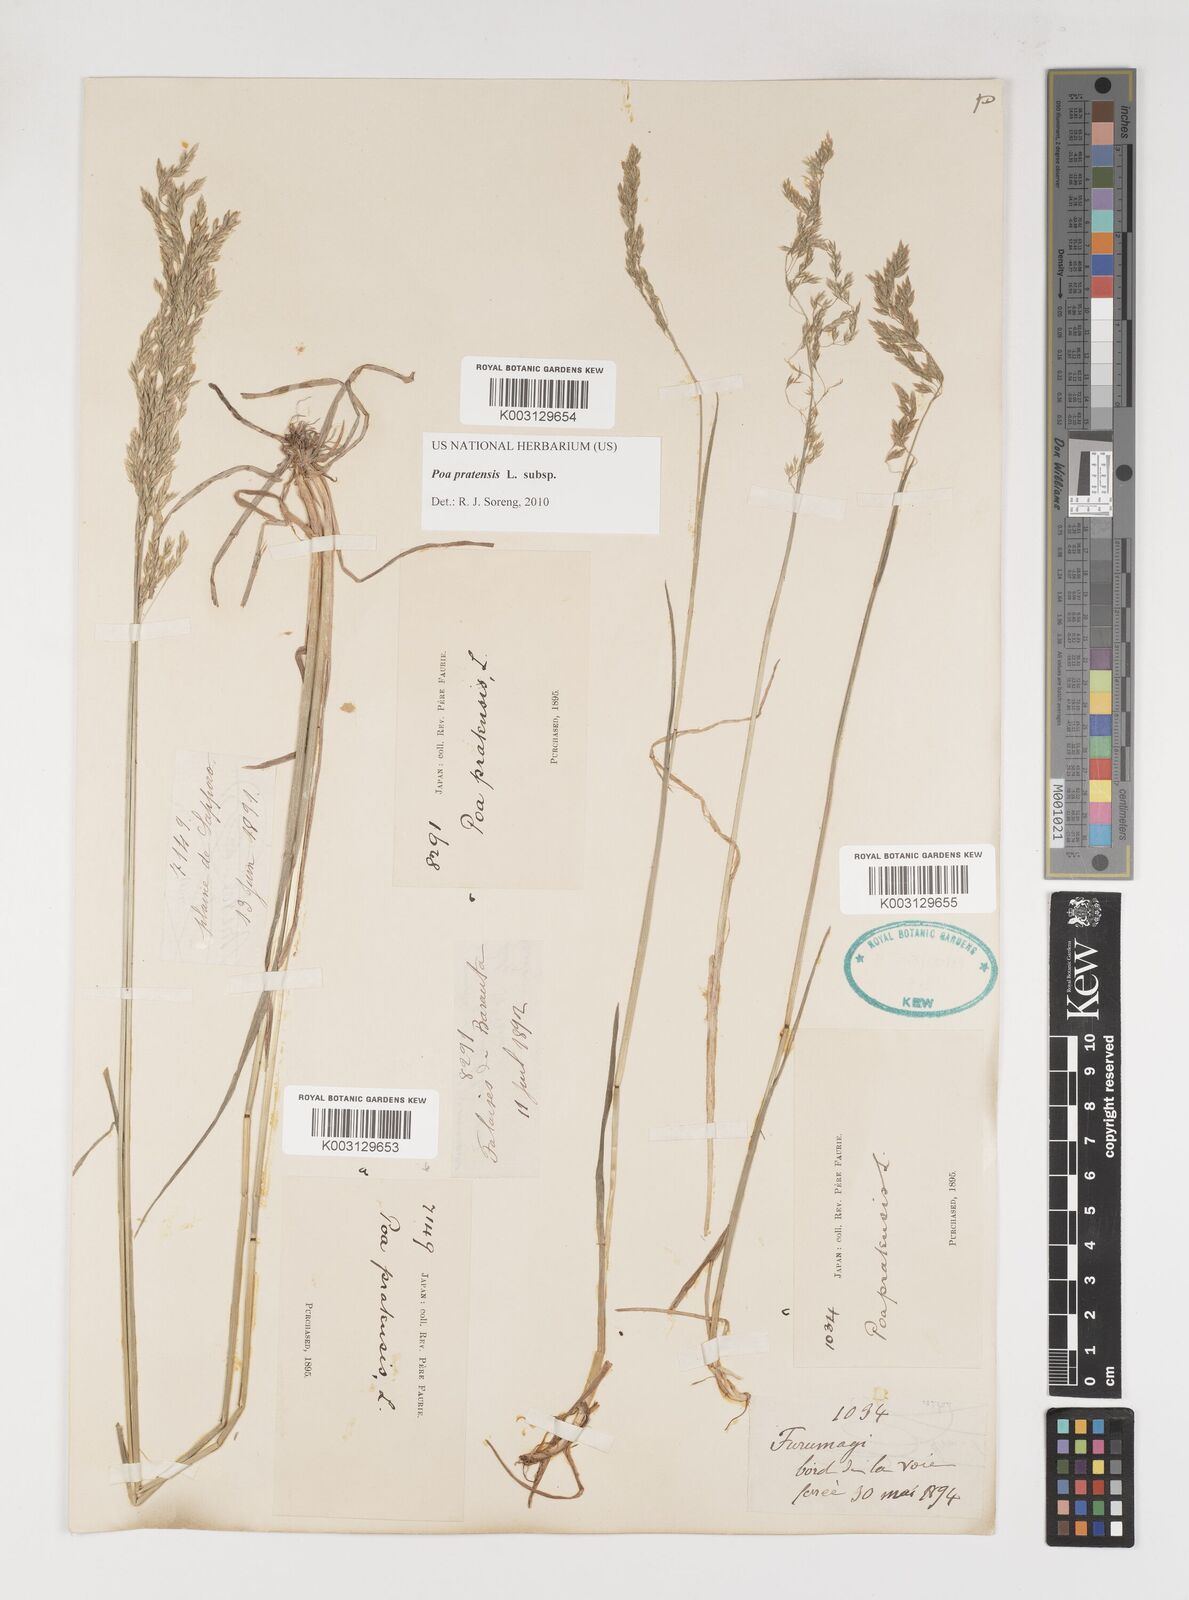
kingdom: Plantae
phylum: Tracheophyta
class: Liliopsida
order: Poales
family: Poaceae
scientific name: Poaceae
